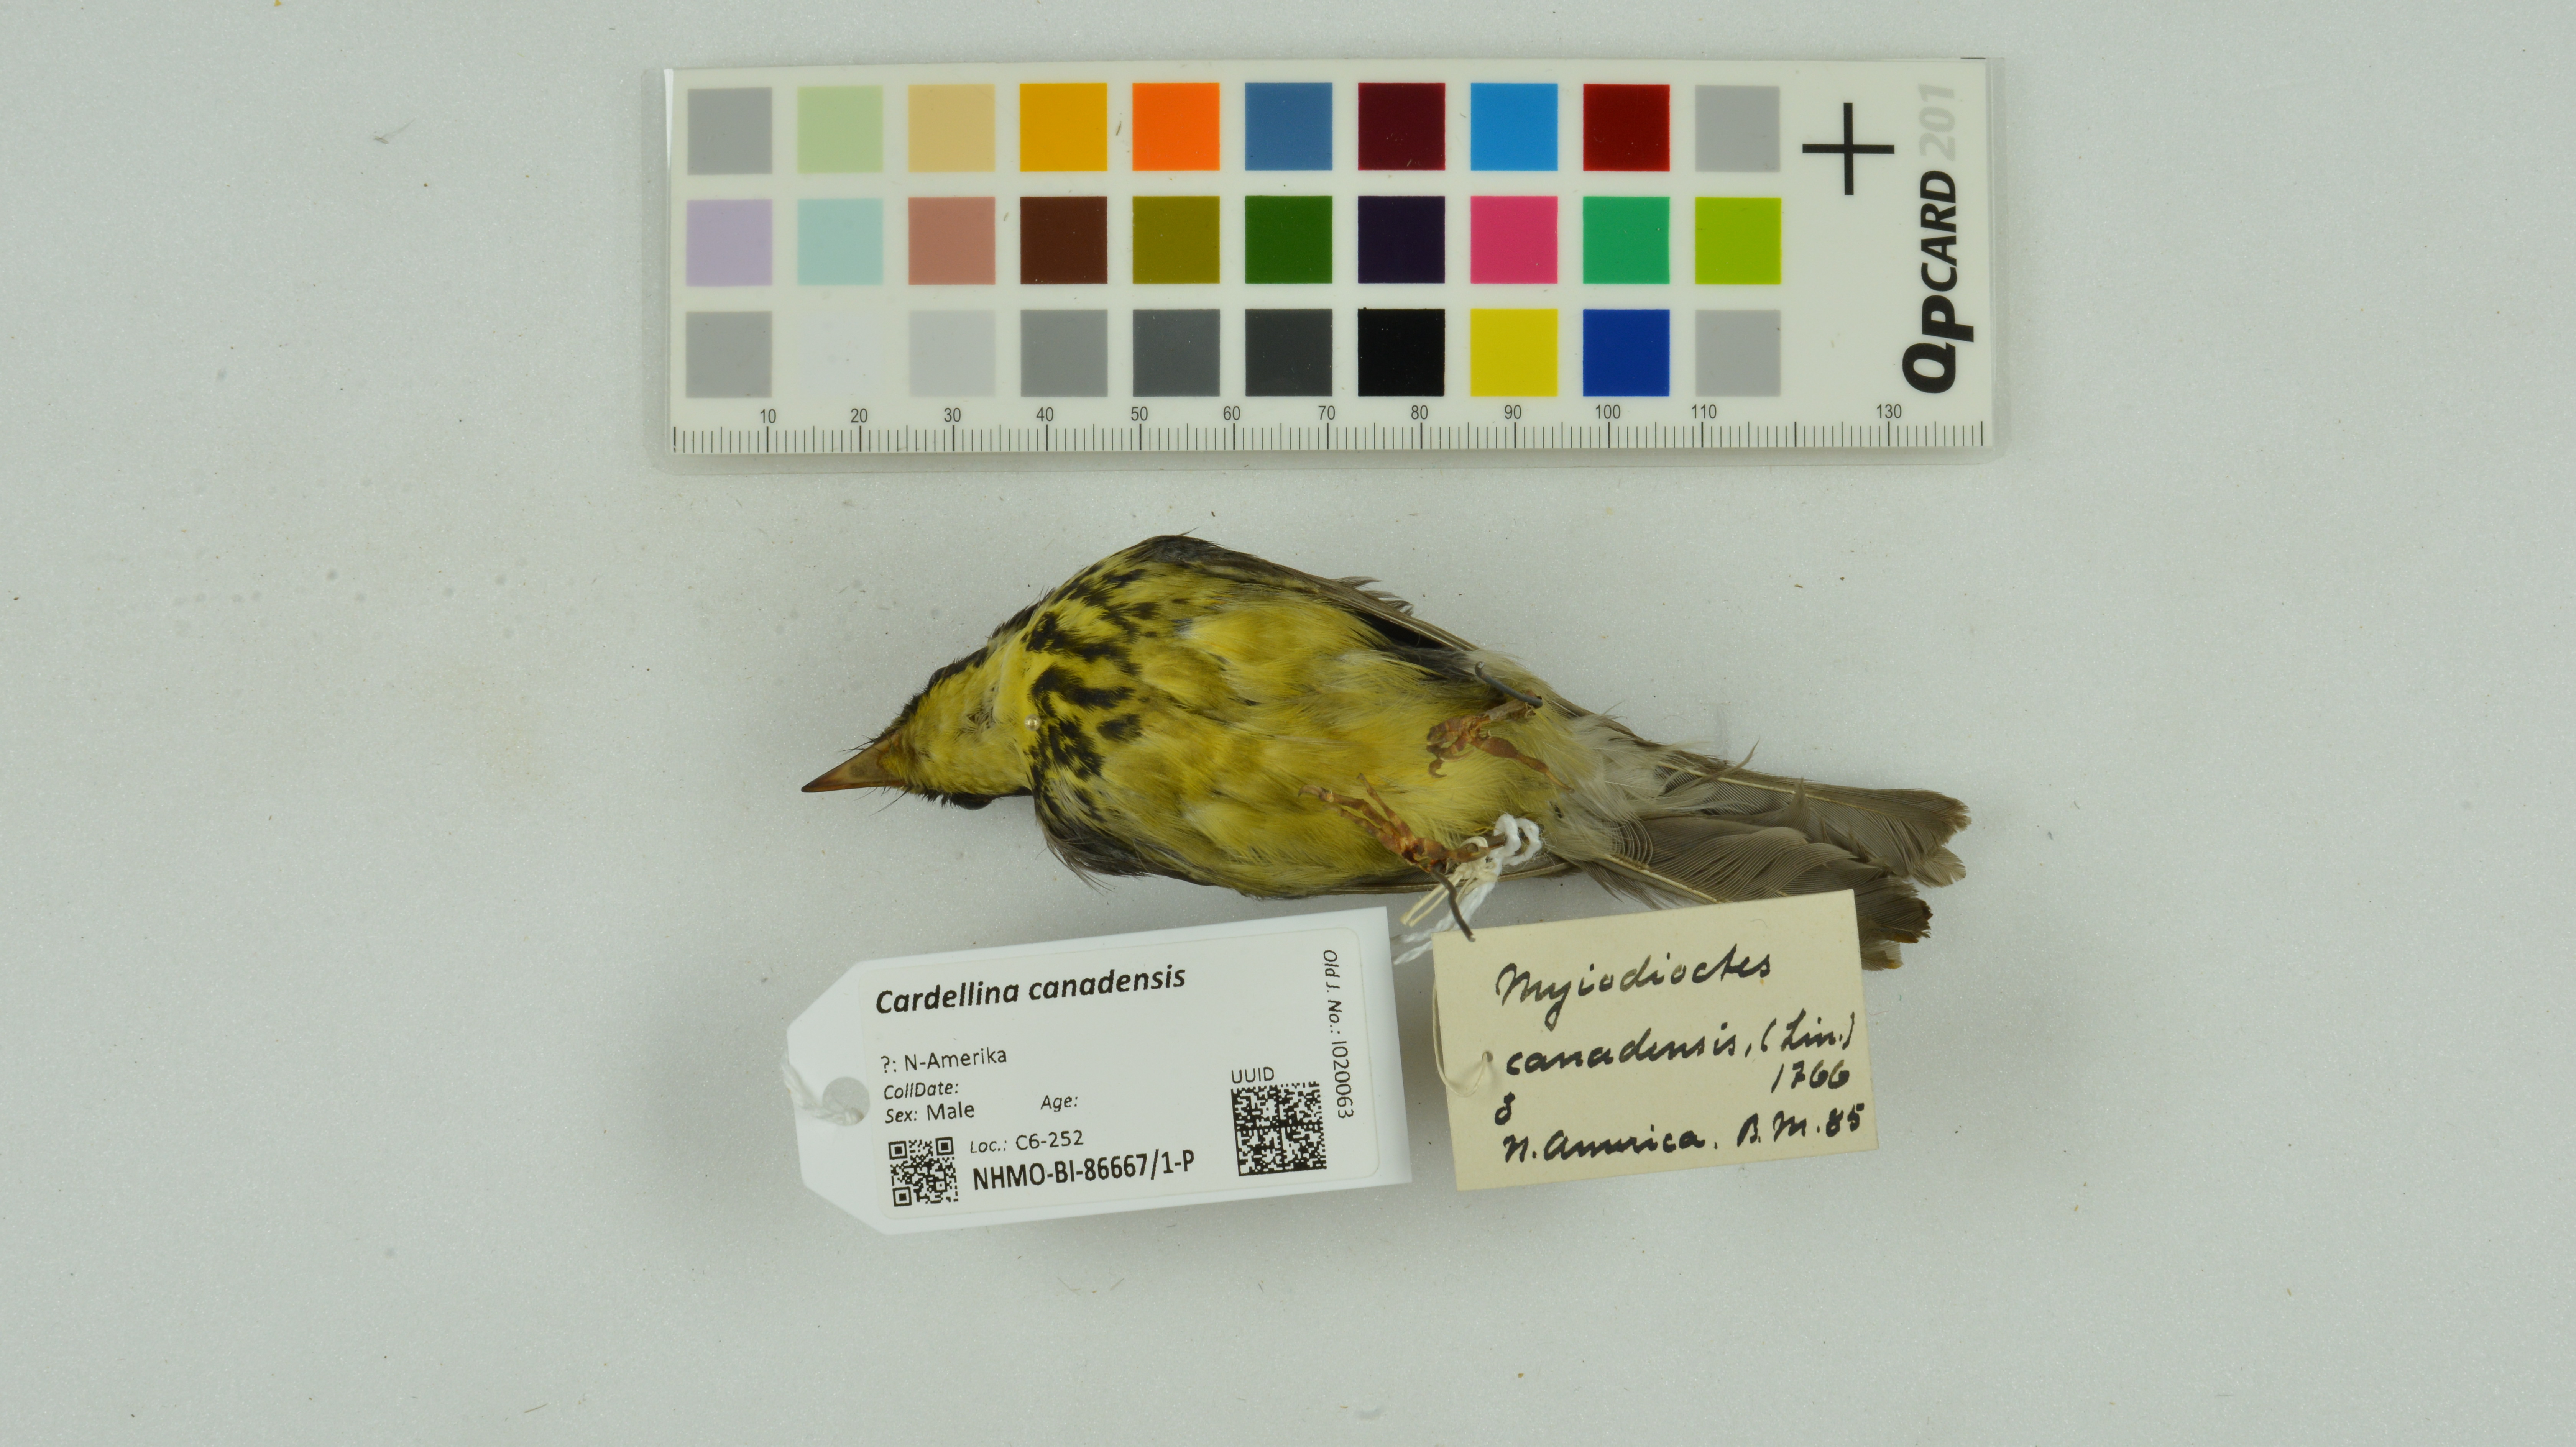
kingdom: Animalia
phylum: Chordata
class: Aves
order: Passeriformes
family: Parulidae
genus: Cardellina
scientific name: Cardellina canadensis
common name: Canada warbler
